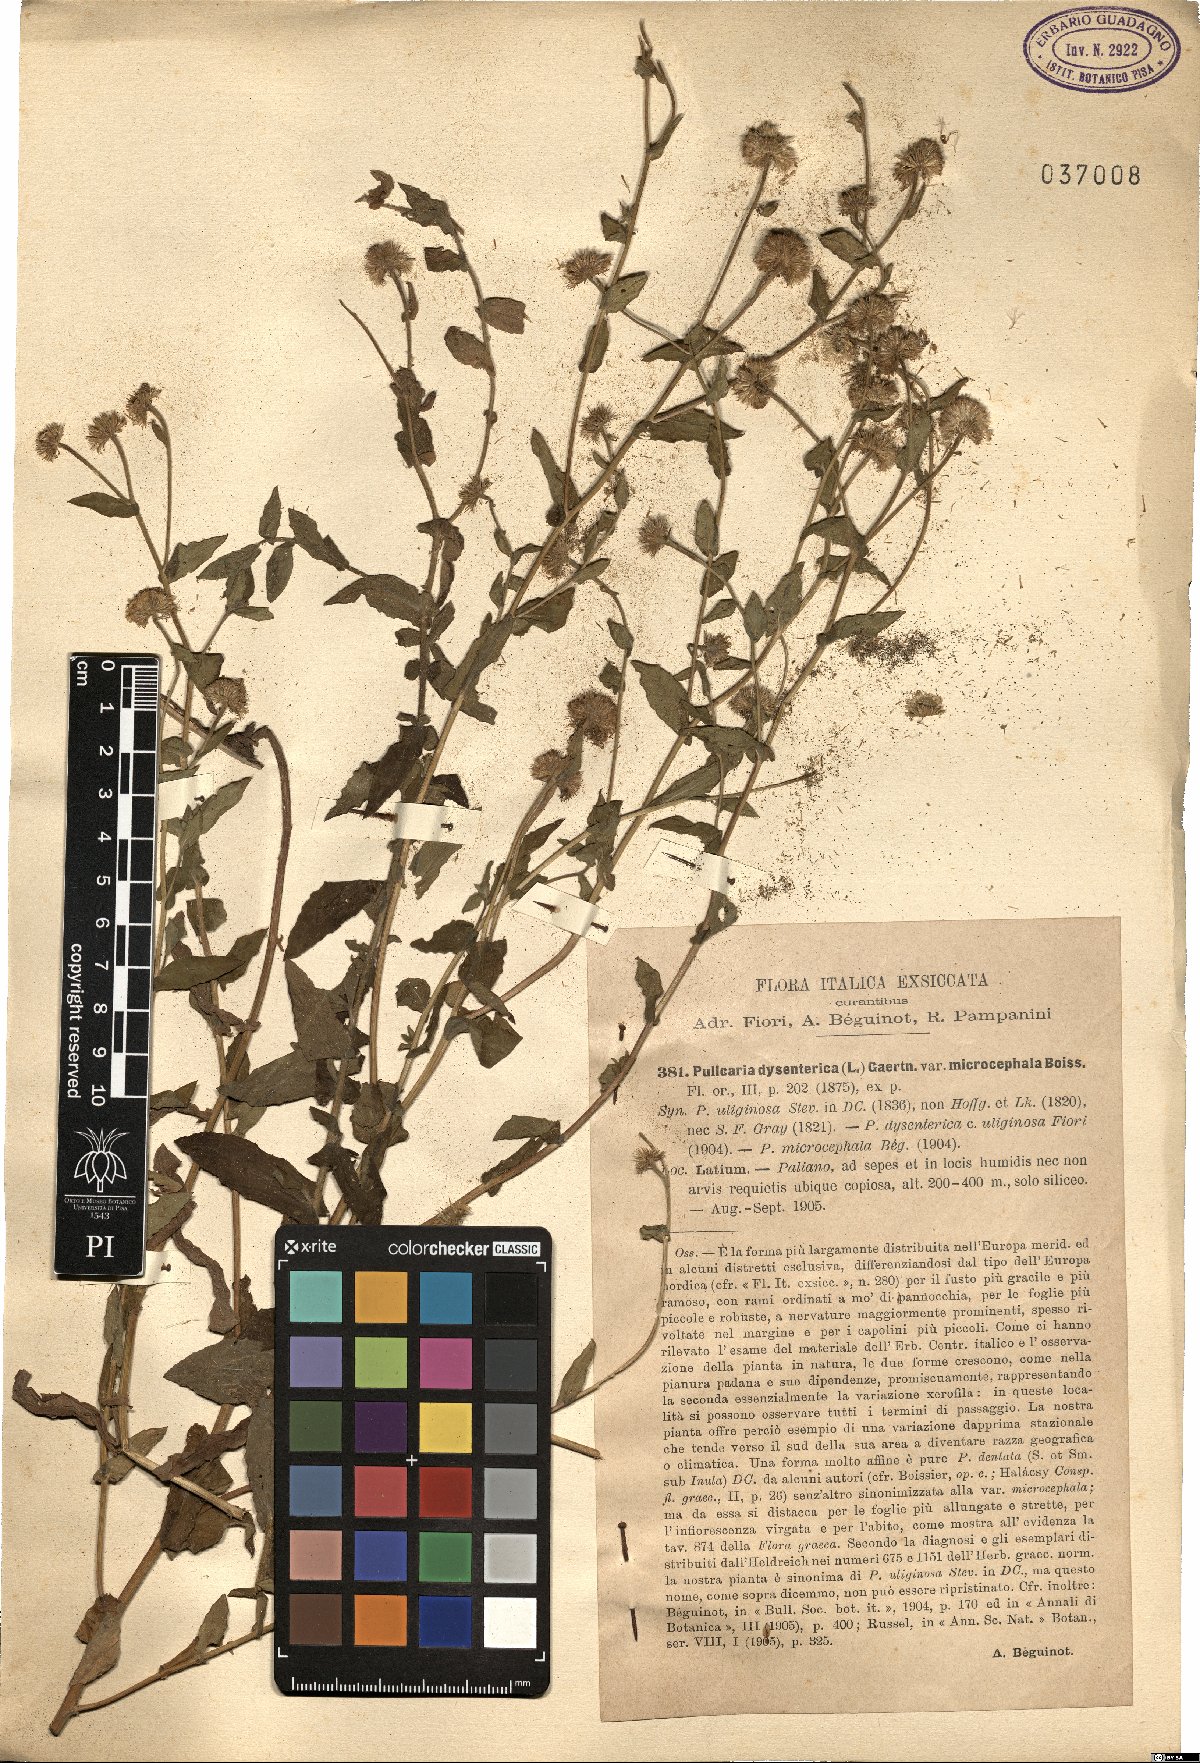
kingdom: Plantae
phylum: Tracheophyta
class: Magnoliopsida
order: Asterales
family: Asteraceae
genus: Pulicaria
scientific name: Pulicaria dysenterica
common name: Common fleabane
